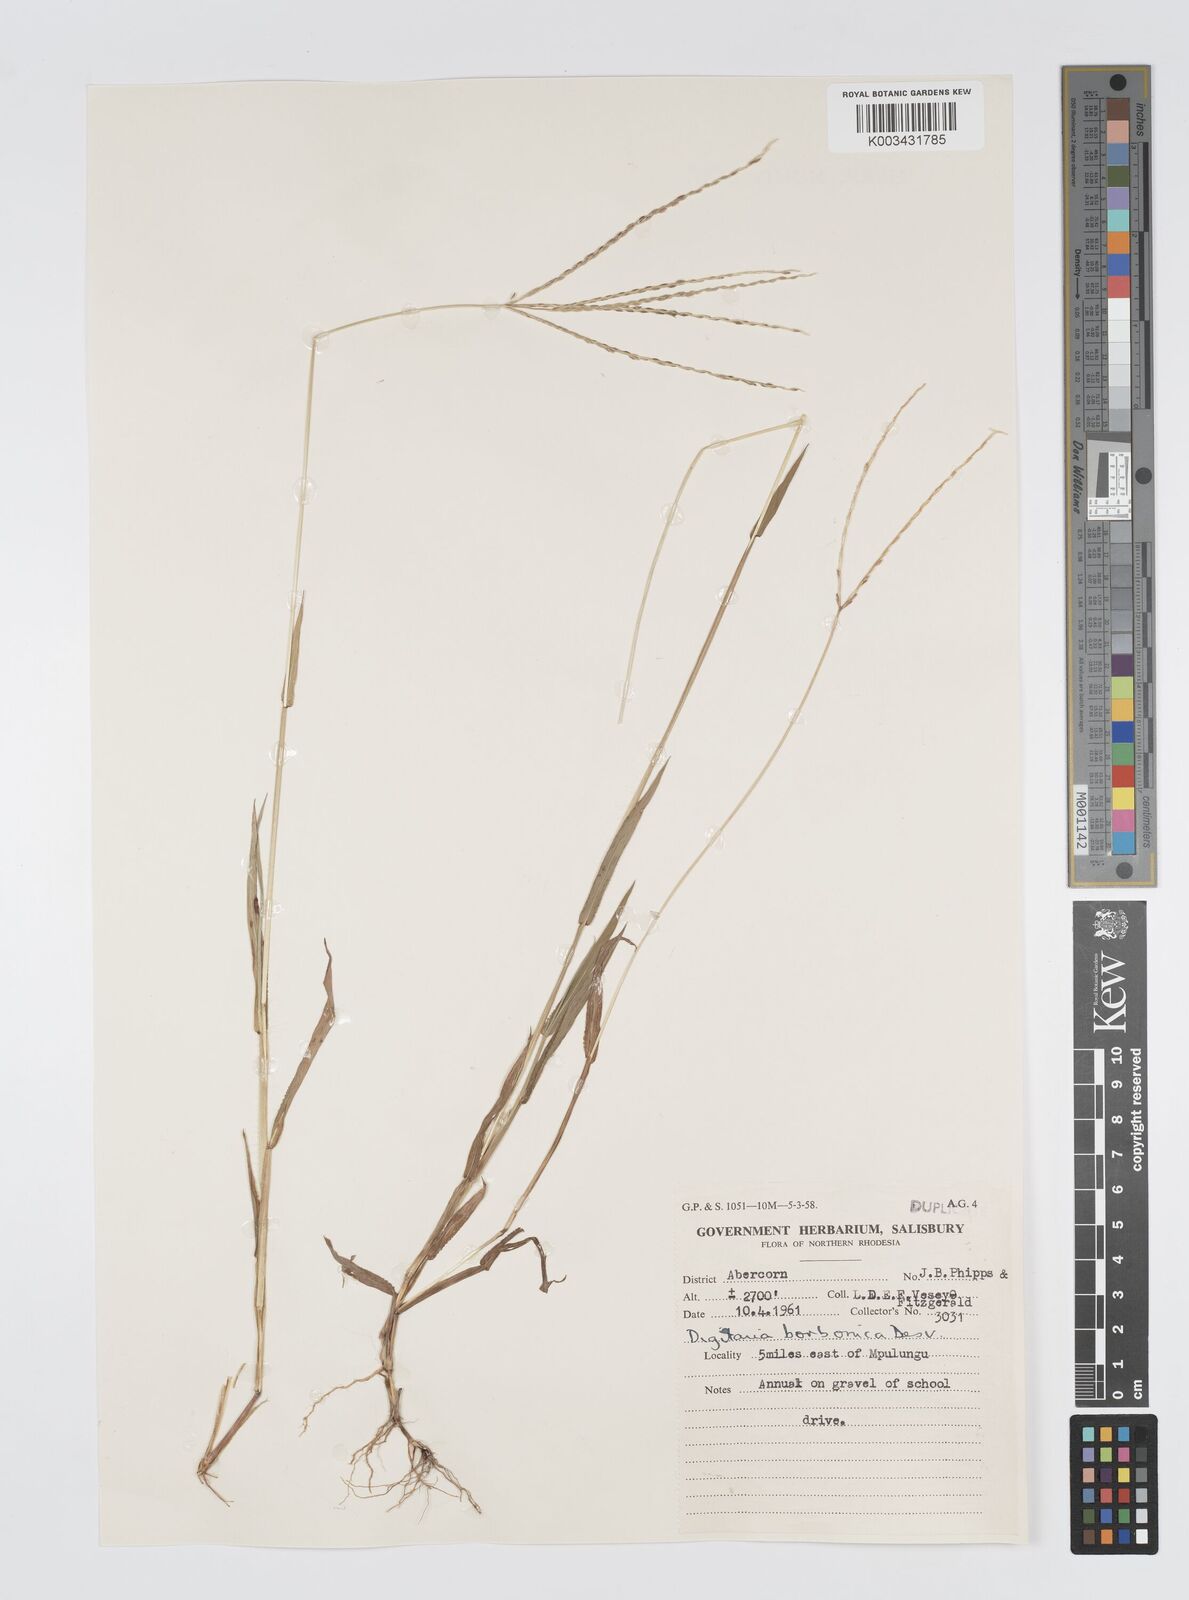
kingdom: Plantae
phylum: Tracheophyta
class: Liliopsida
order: Poales
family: Poaceae
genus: Digitaria
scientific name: Digitaria nuda
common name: Naked crabgrass
